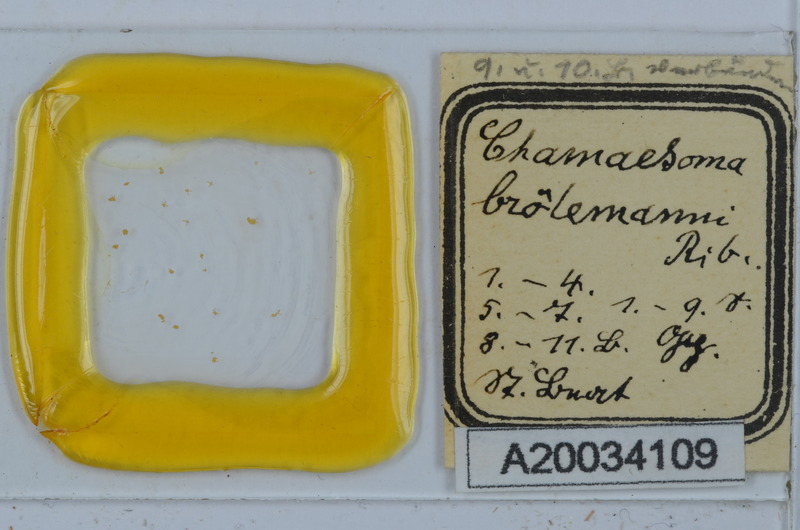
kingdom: Animalia
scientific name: Animalia
